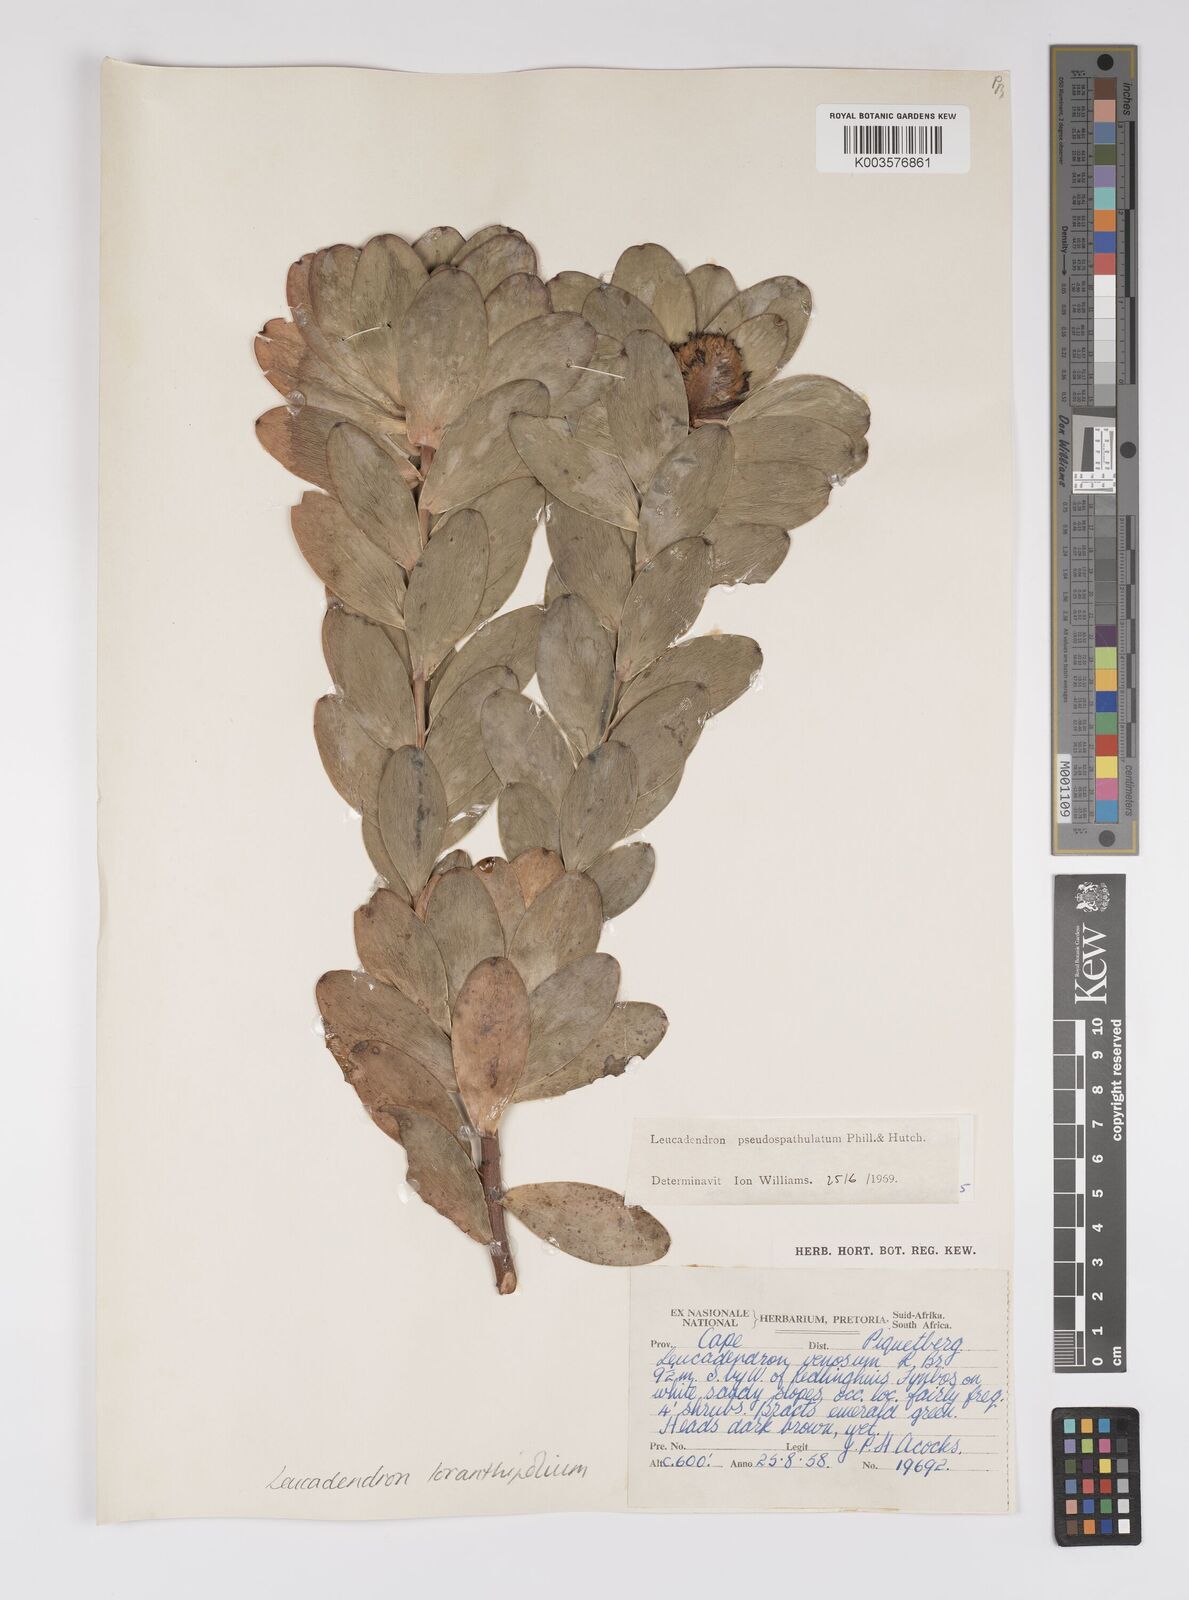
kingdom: Plantae
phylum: Tracheophyta
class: Magnoliopsida
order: Proteales
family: Proteaceae
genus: Leucadendron
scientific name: Leucadendron loranthifolium
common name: Green-flower sunbush
